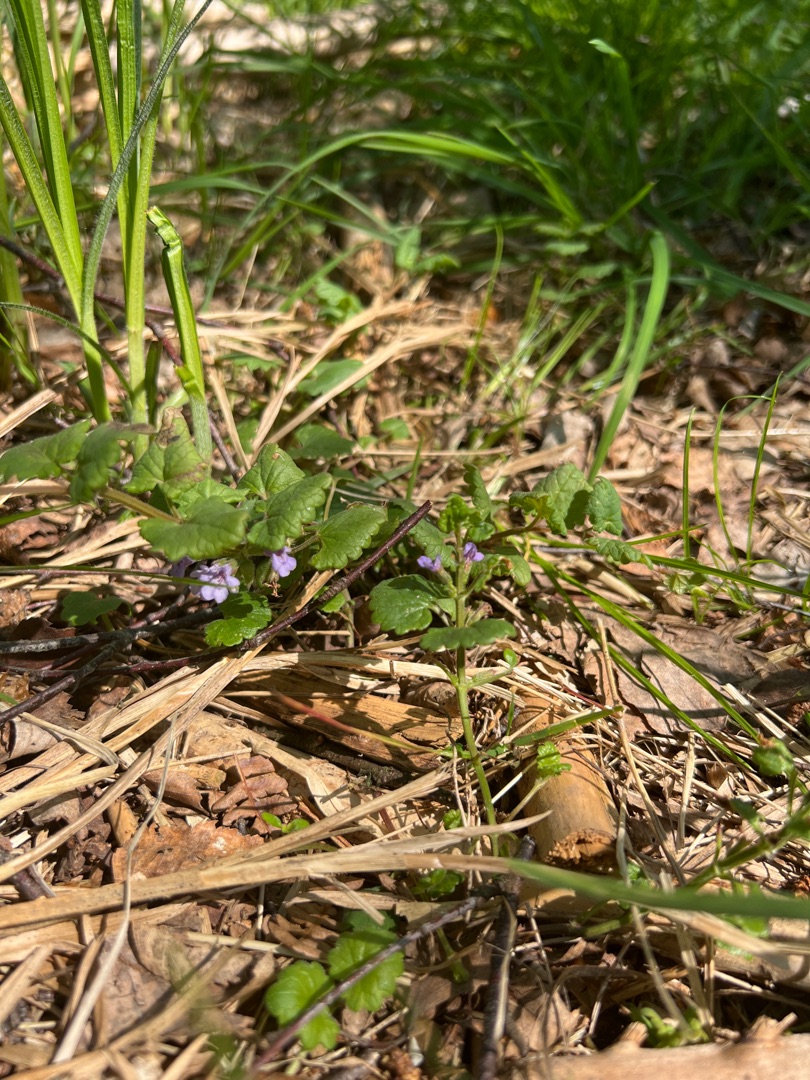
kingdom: Plantae
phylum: Tracheophyta
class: Magnoliopsida
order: Lamiales
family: Lamiaceae
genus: Glechoma
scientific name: Glechoma hederacea
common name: Korsknap
